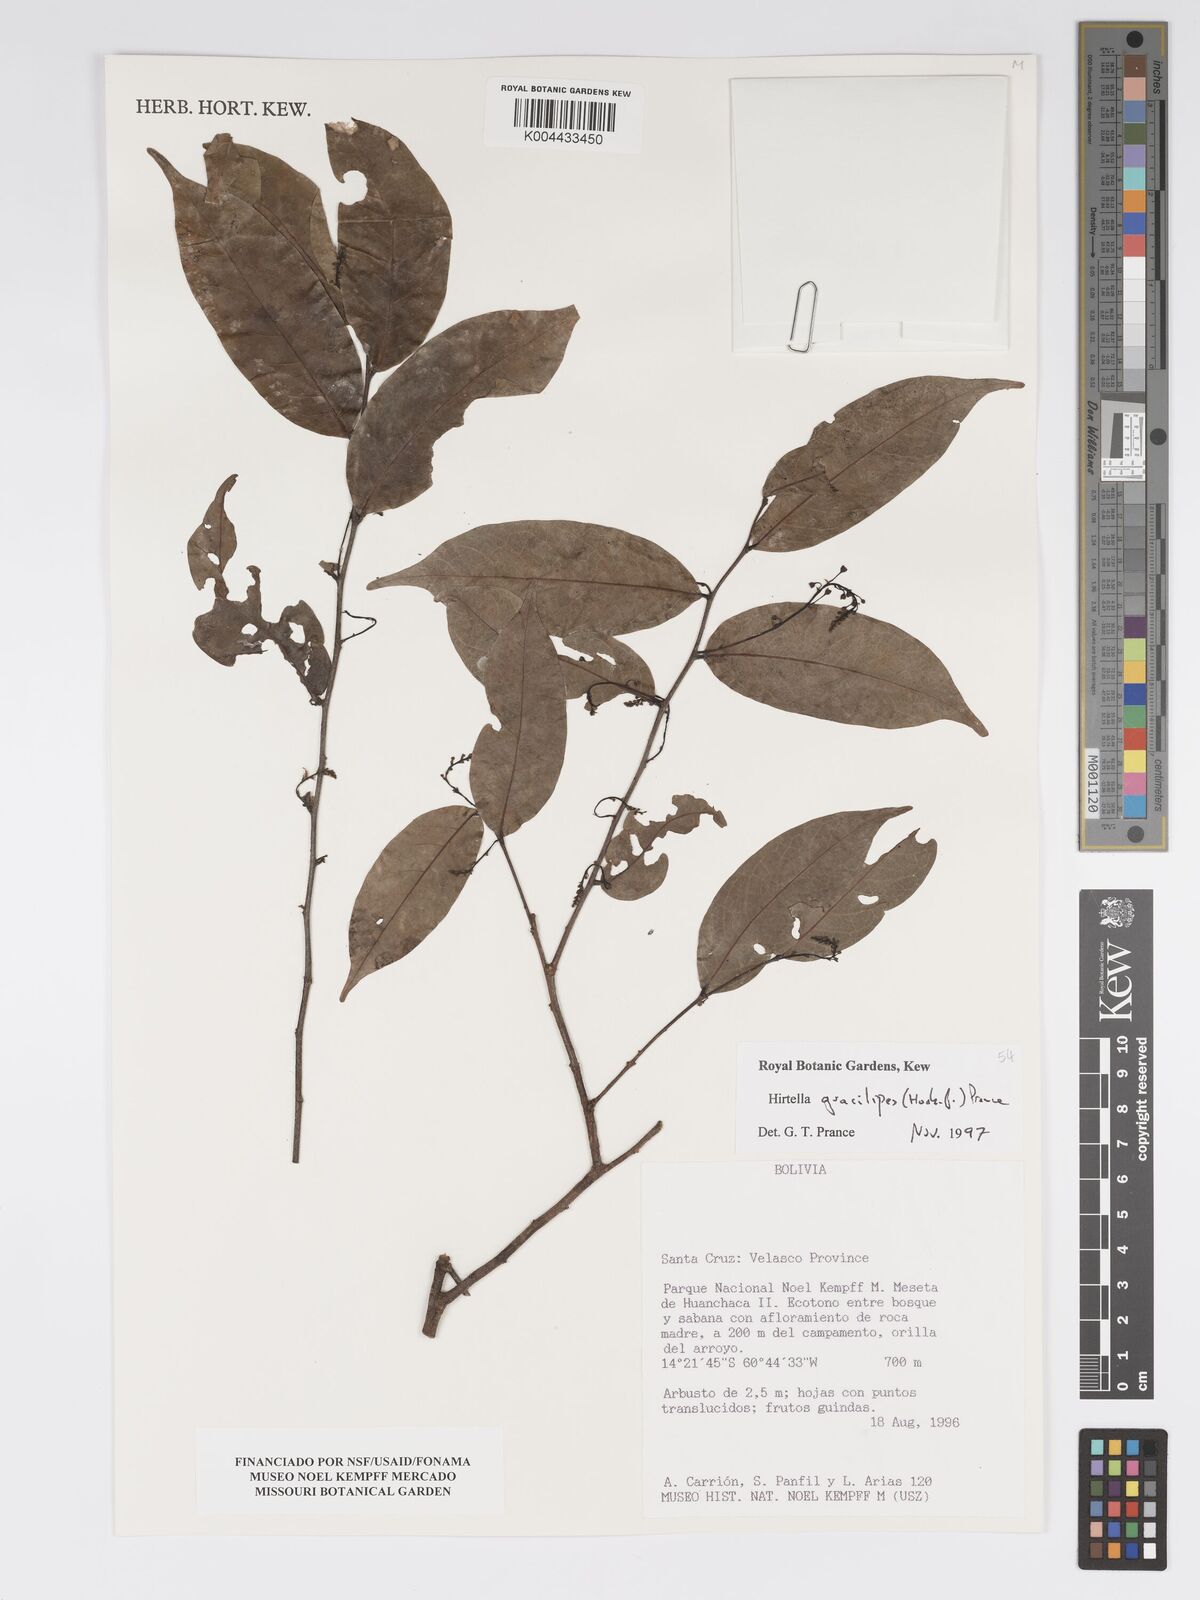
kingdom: Plantae
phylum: Tracheophyta
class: Magnoliopsida
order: Malpighiales
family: Chrysobalanaceae
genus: Hirtella
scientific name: Hirtella gracilipes
